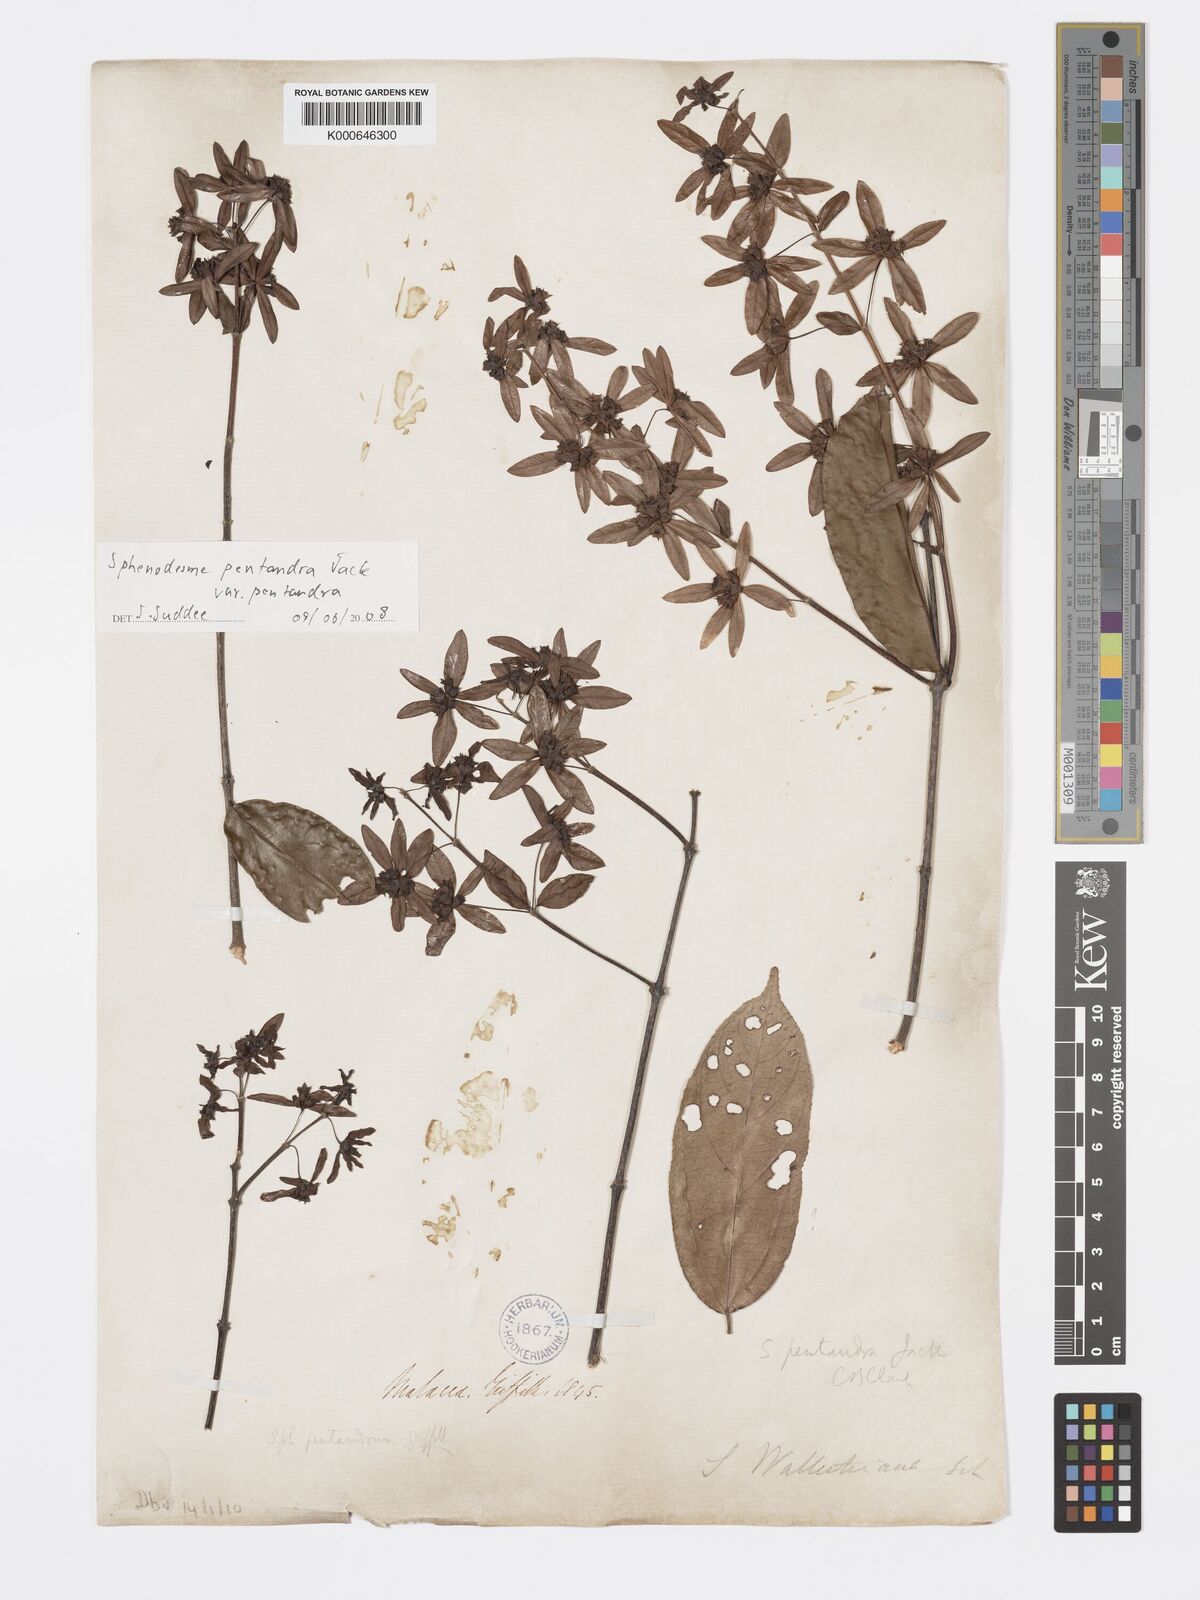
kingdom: Plantae
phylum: Tracheophyta
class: Magnoliopsida
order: Lamiales
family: Lamiaceae
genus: Sphenodesme
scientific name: Sphenodesme pentandra
